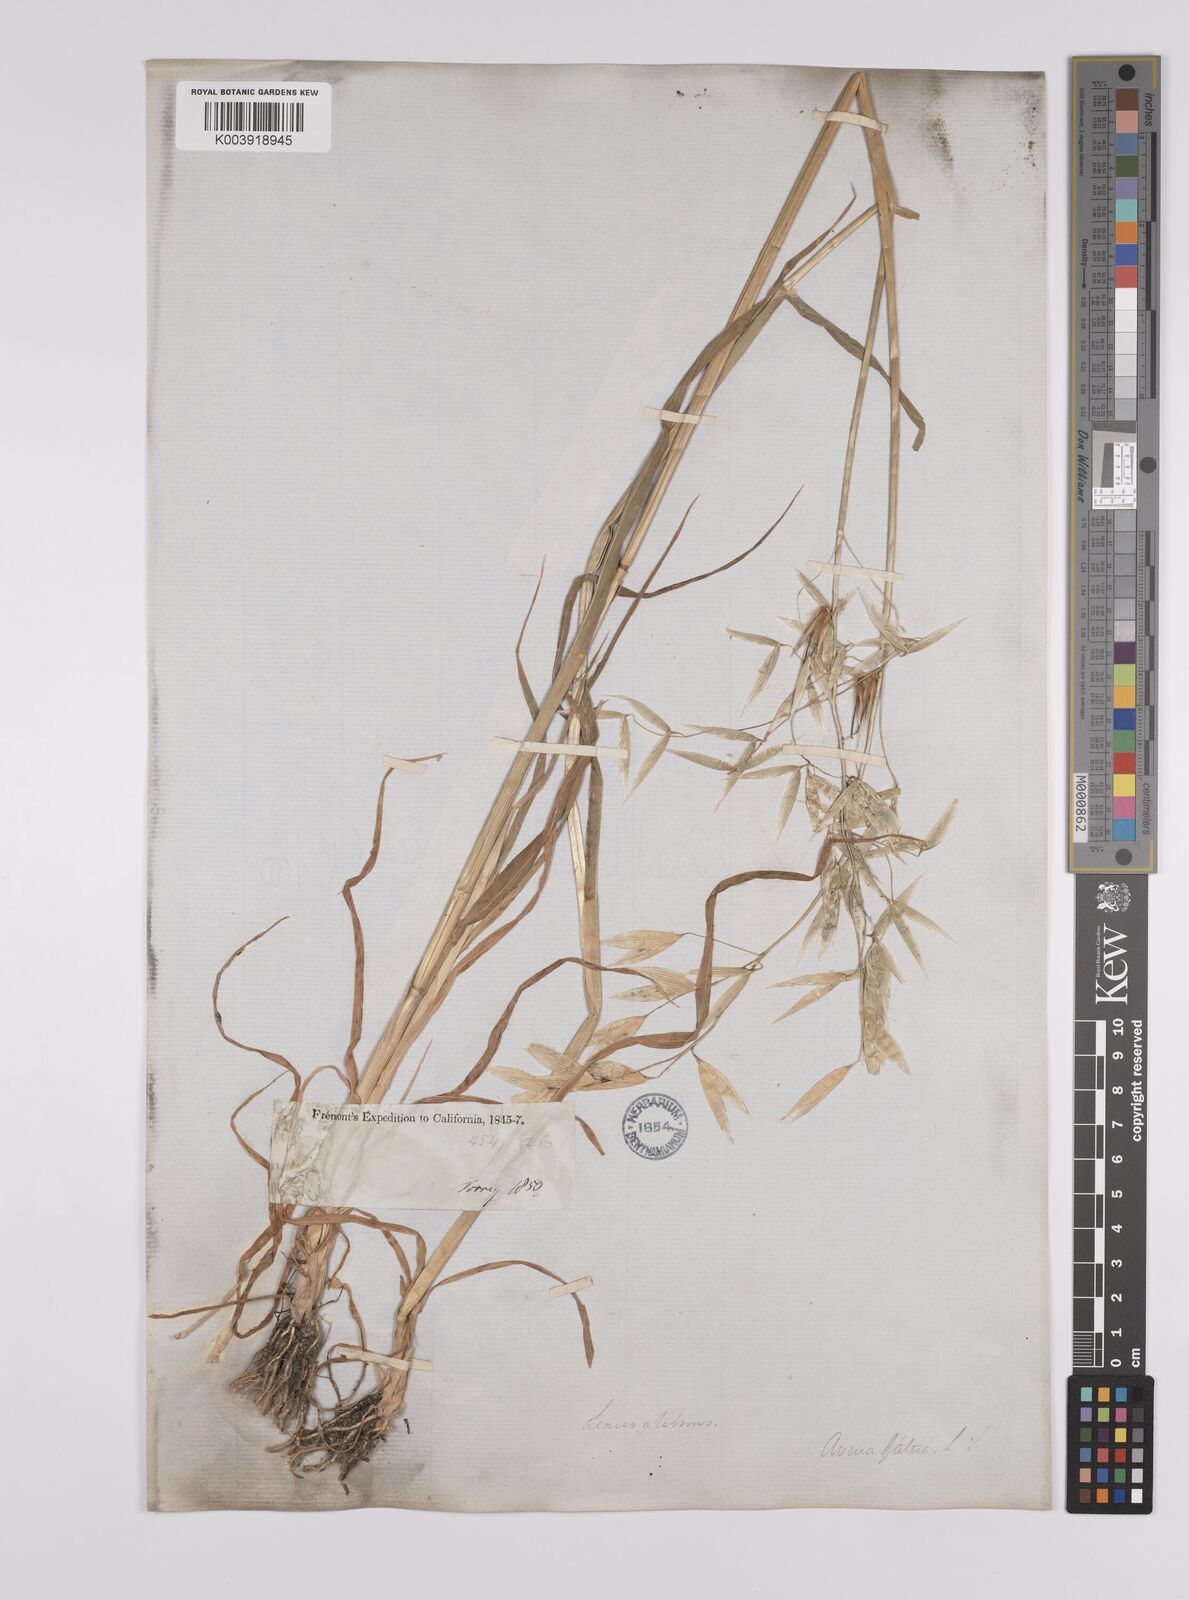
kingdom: Plantae
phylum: Tracheophyta
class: Liliopsida
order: Poales
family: Poaceae
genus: Avena
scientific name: Avena fatua
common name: Wild oat
